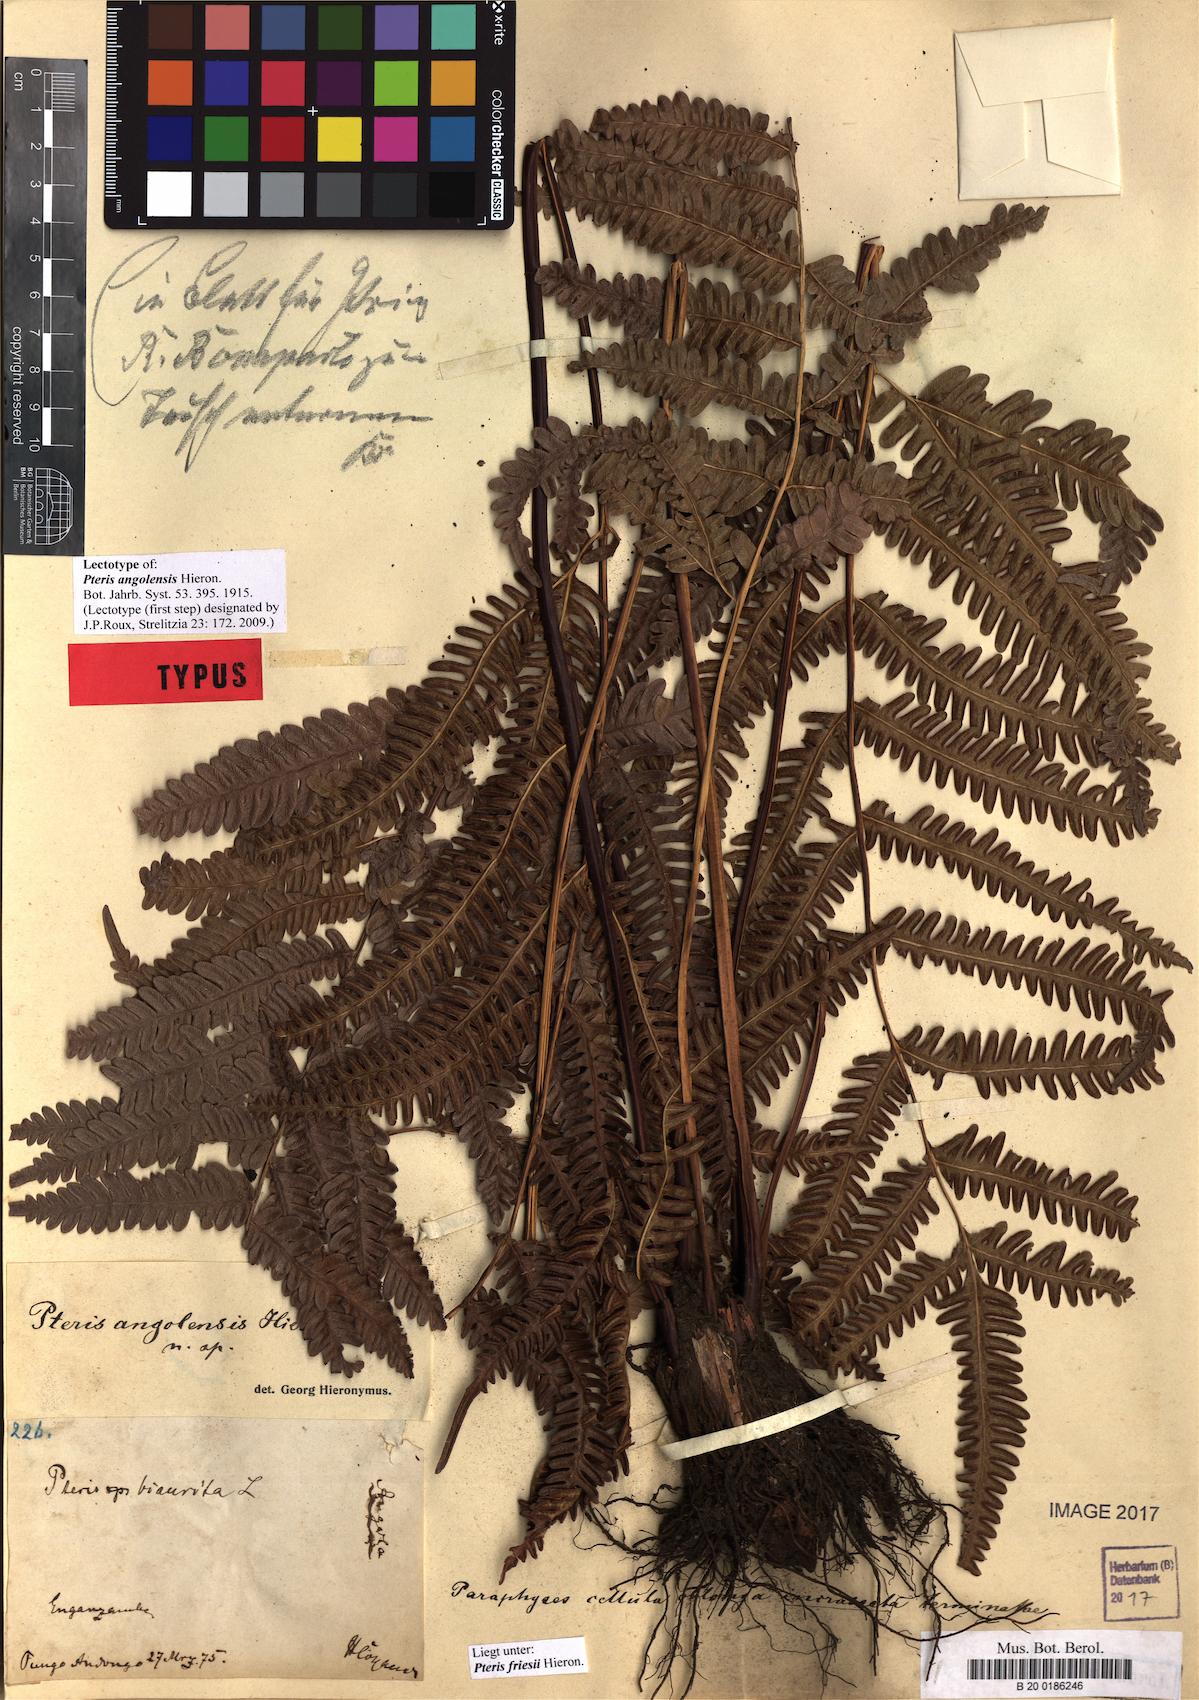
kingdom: Plantae
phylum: Tracheophyta
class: Polypodiopsida
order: Polypodiales
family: Pteridaceae
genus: Pteris
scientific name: Pteris friesii
